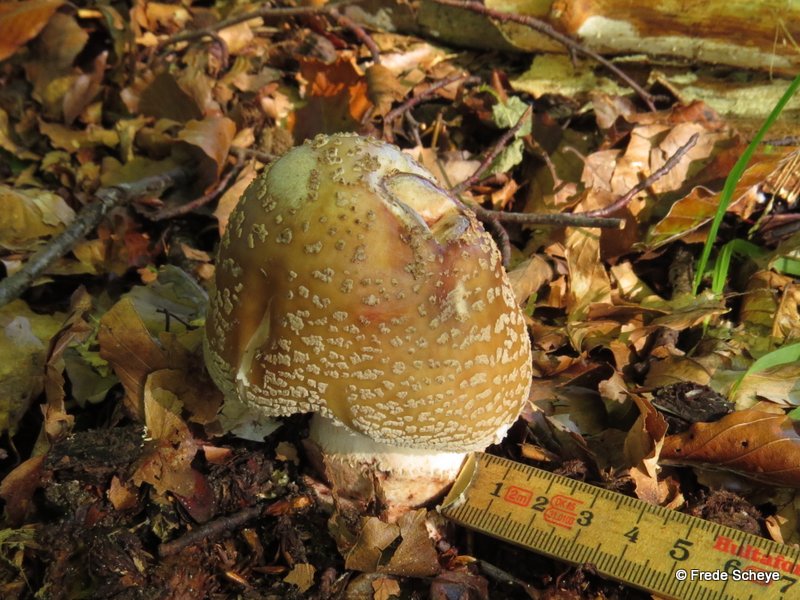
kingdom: Fungi
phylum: Basidiomycota
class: Agaricomycetes
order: Agaricales
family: Amanitaceae
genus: Amanita
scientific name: Amanita rubescens
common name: rødmende fluesvamp
